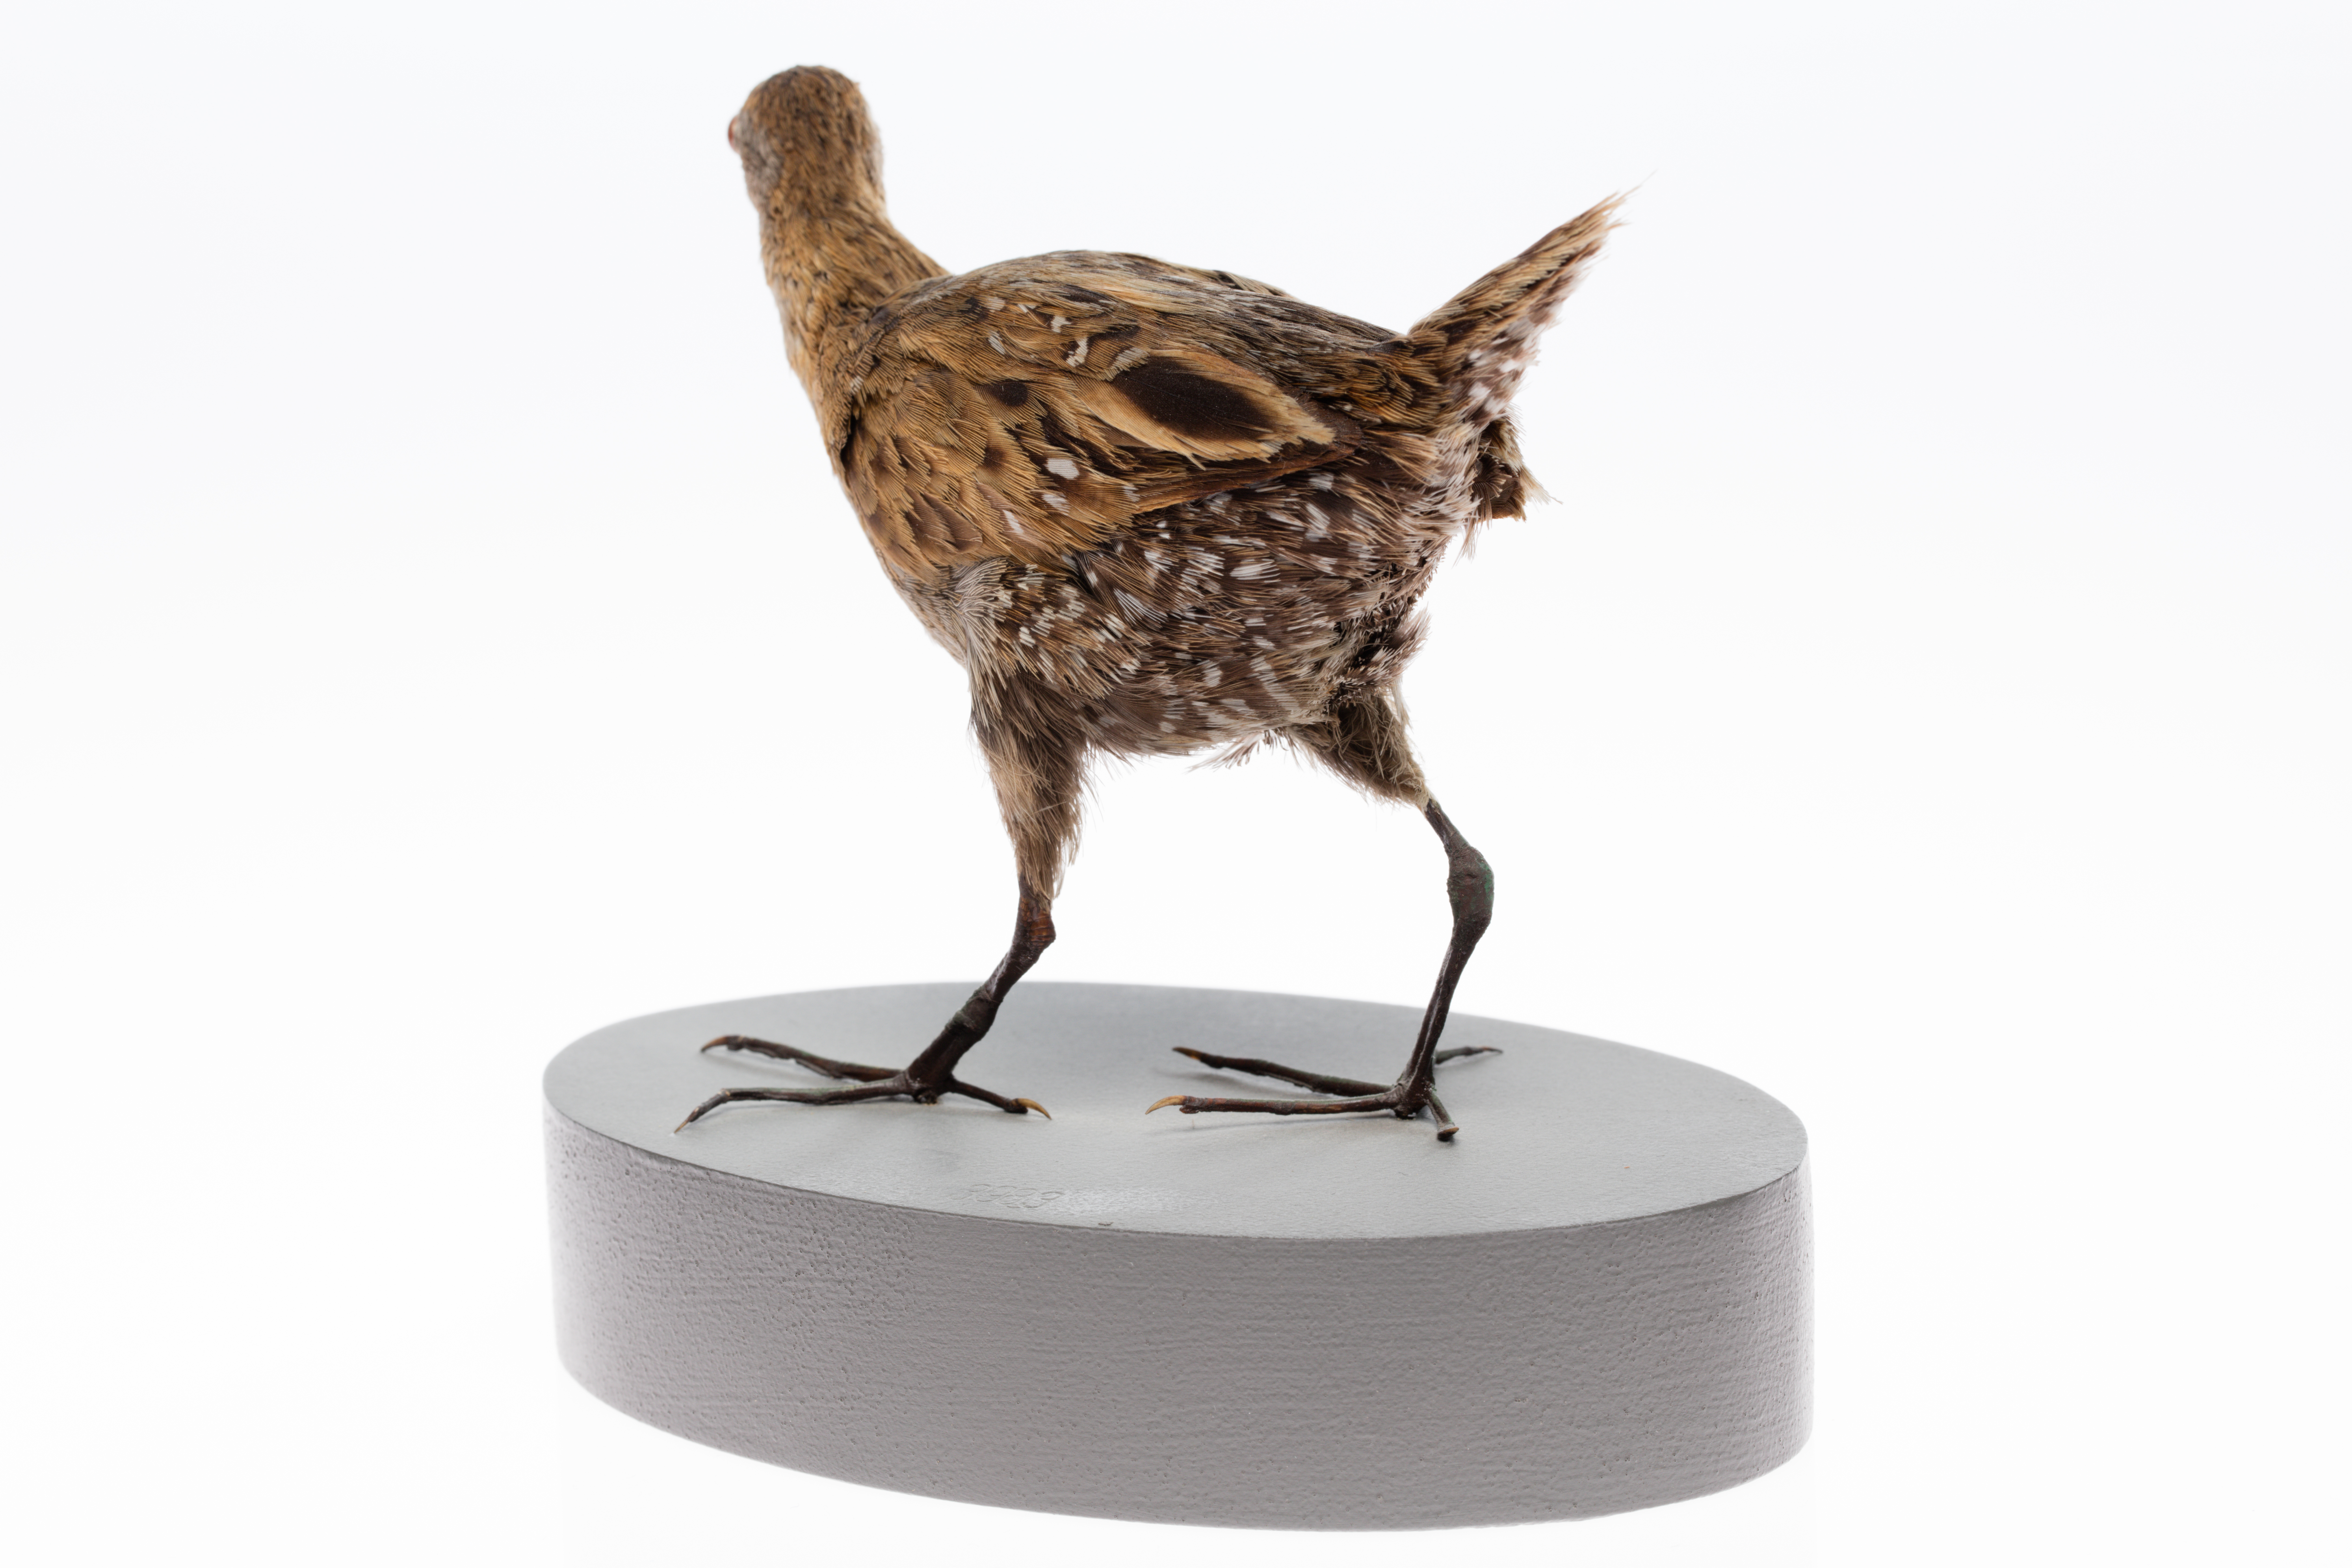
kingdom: Animalia
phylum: Chordata
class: Aves
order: Gruiformes
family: Rallidae
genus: Porzana
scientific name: Porzana pusilla
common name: Baillon's crake
